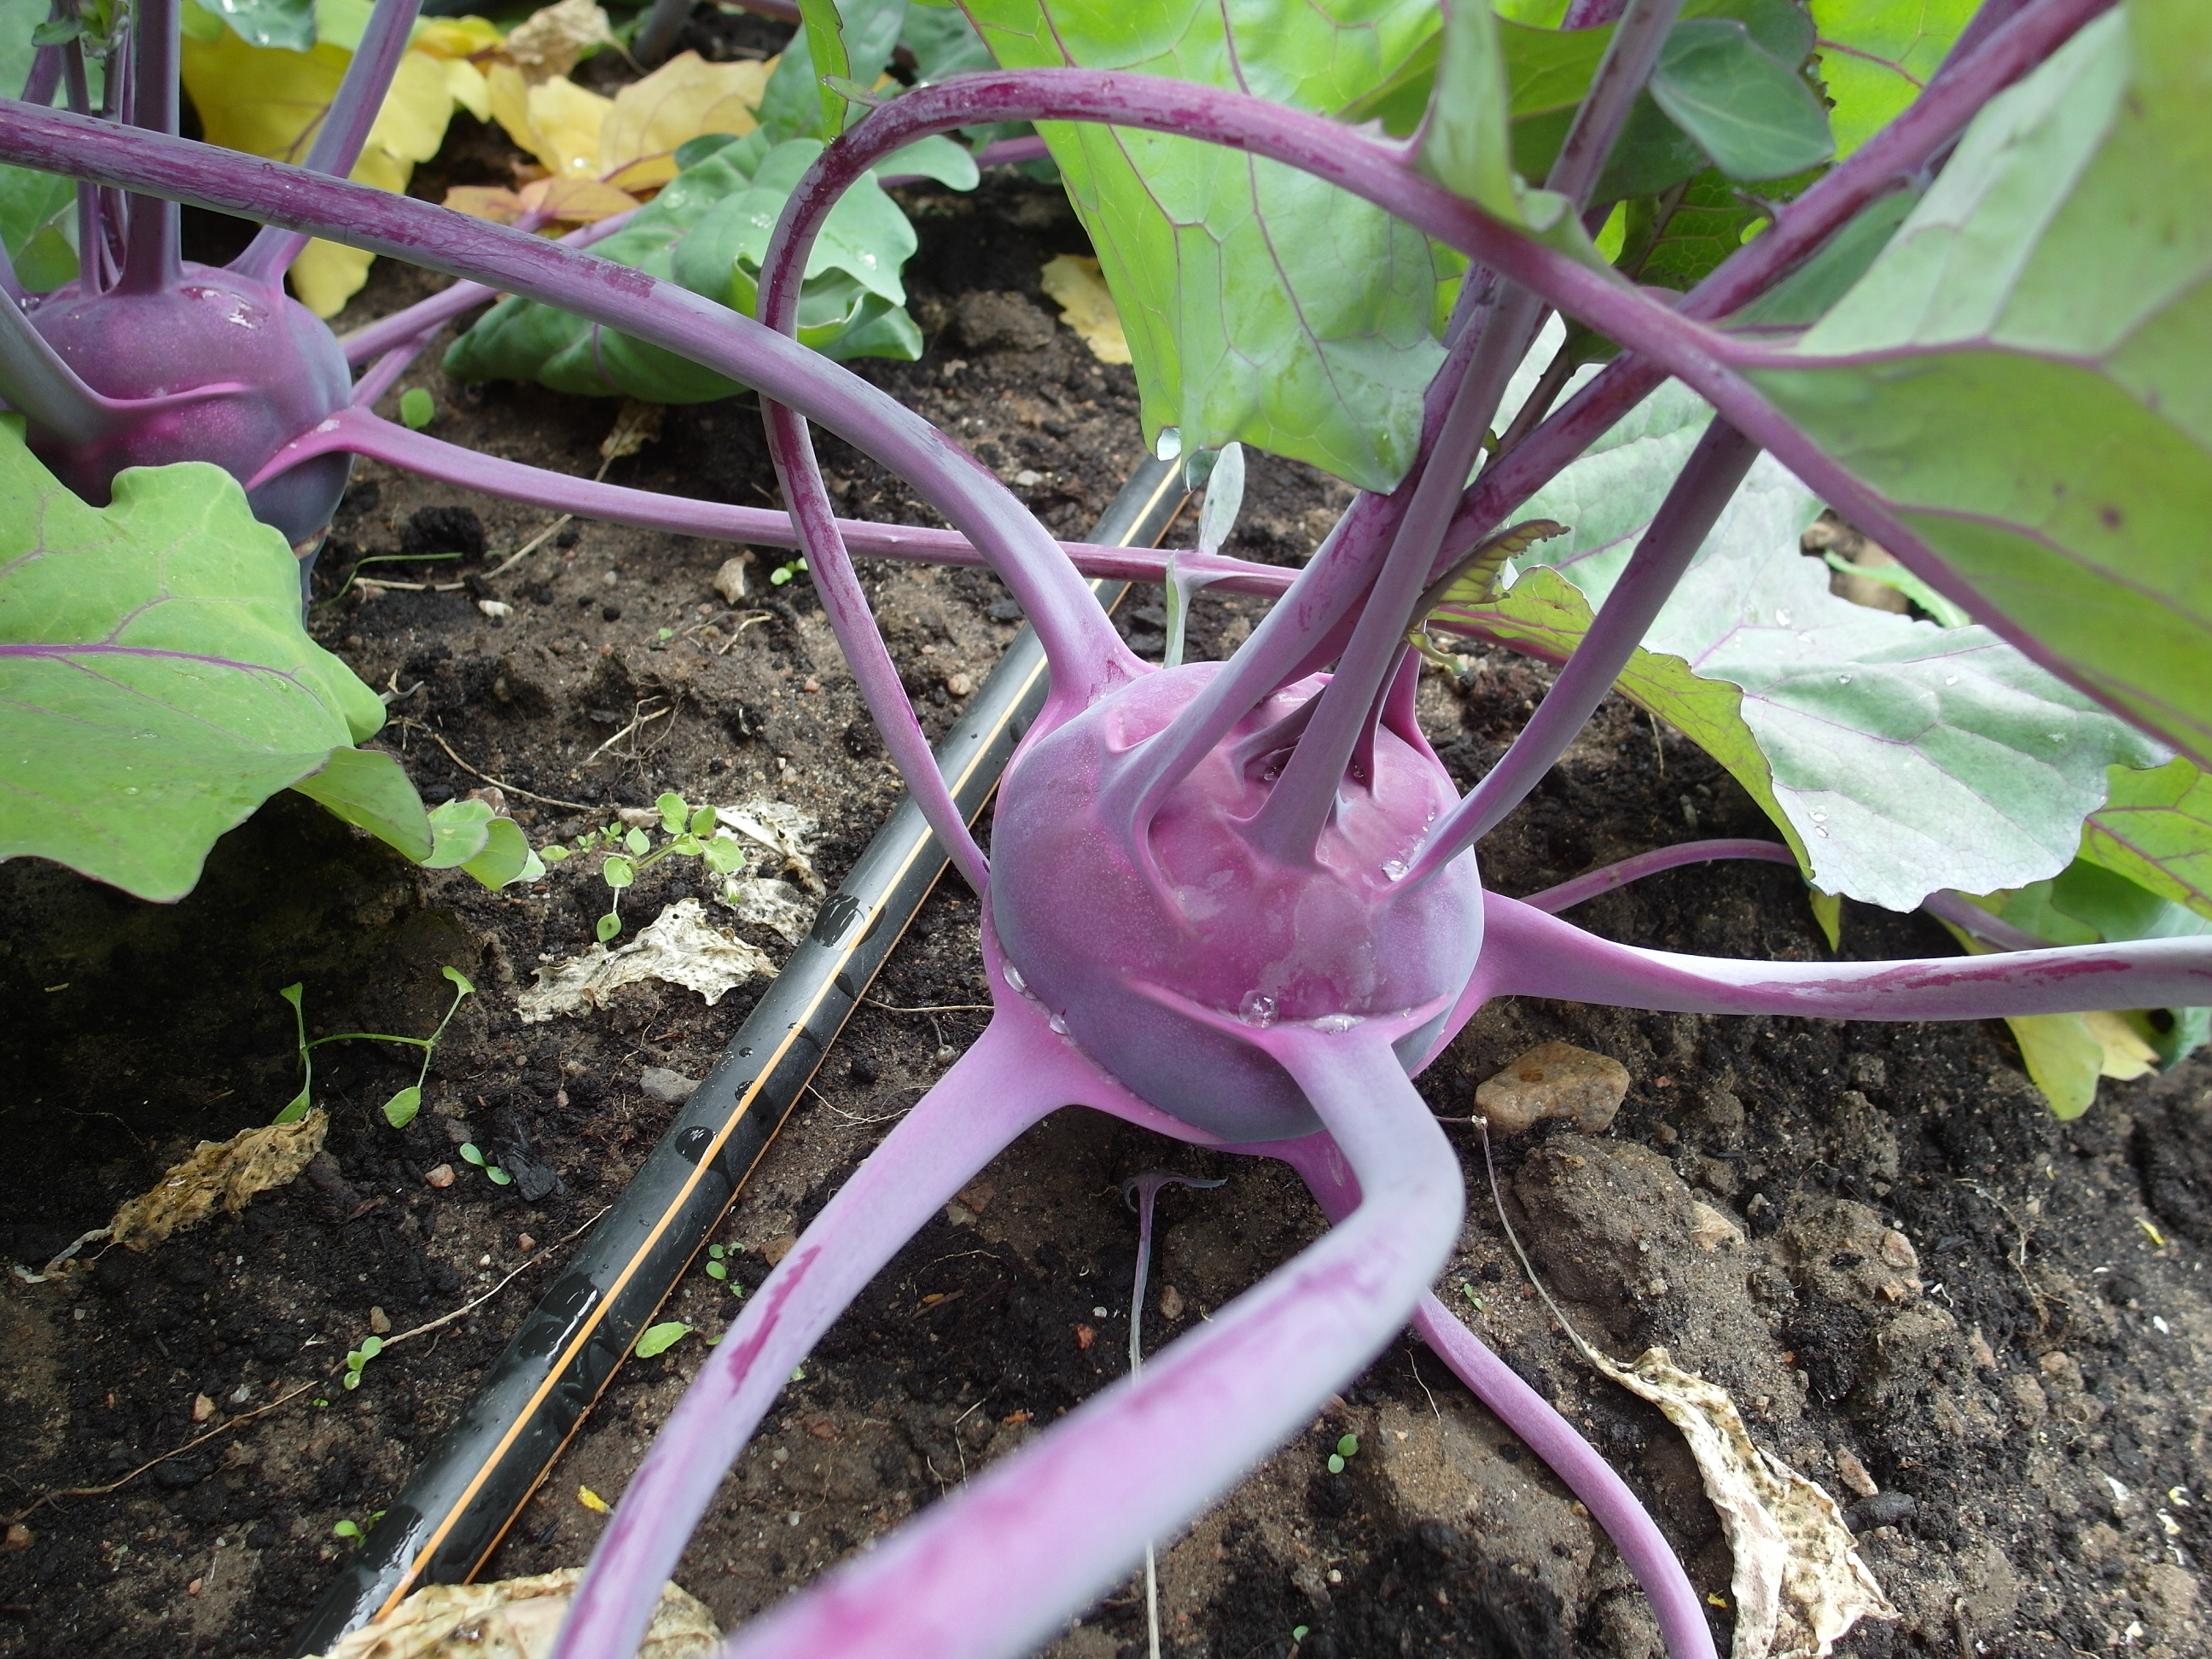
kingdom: Plantae
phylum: Tracheophyta
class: Magnoliopsida
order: Brassicales
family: Brassicaceae
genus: Brassica
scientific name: Brassica oleracea
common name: Cabbage
